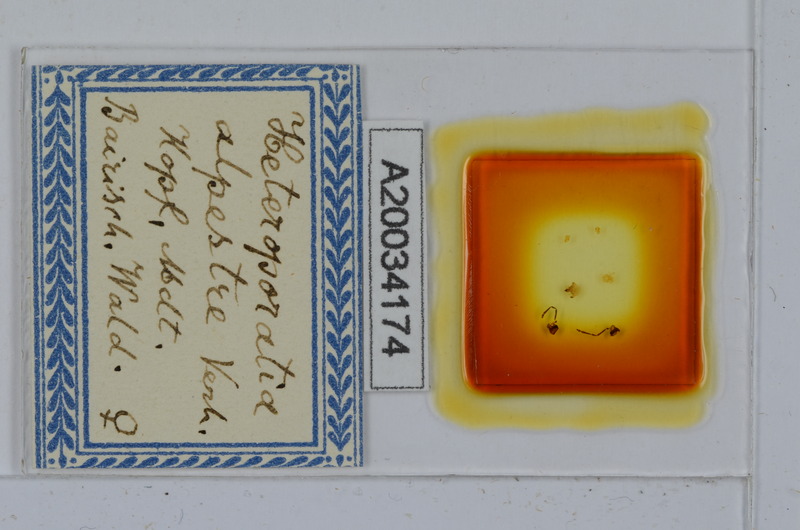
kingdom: Animalia
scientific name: Animalia
